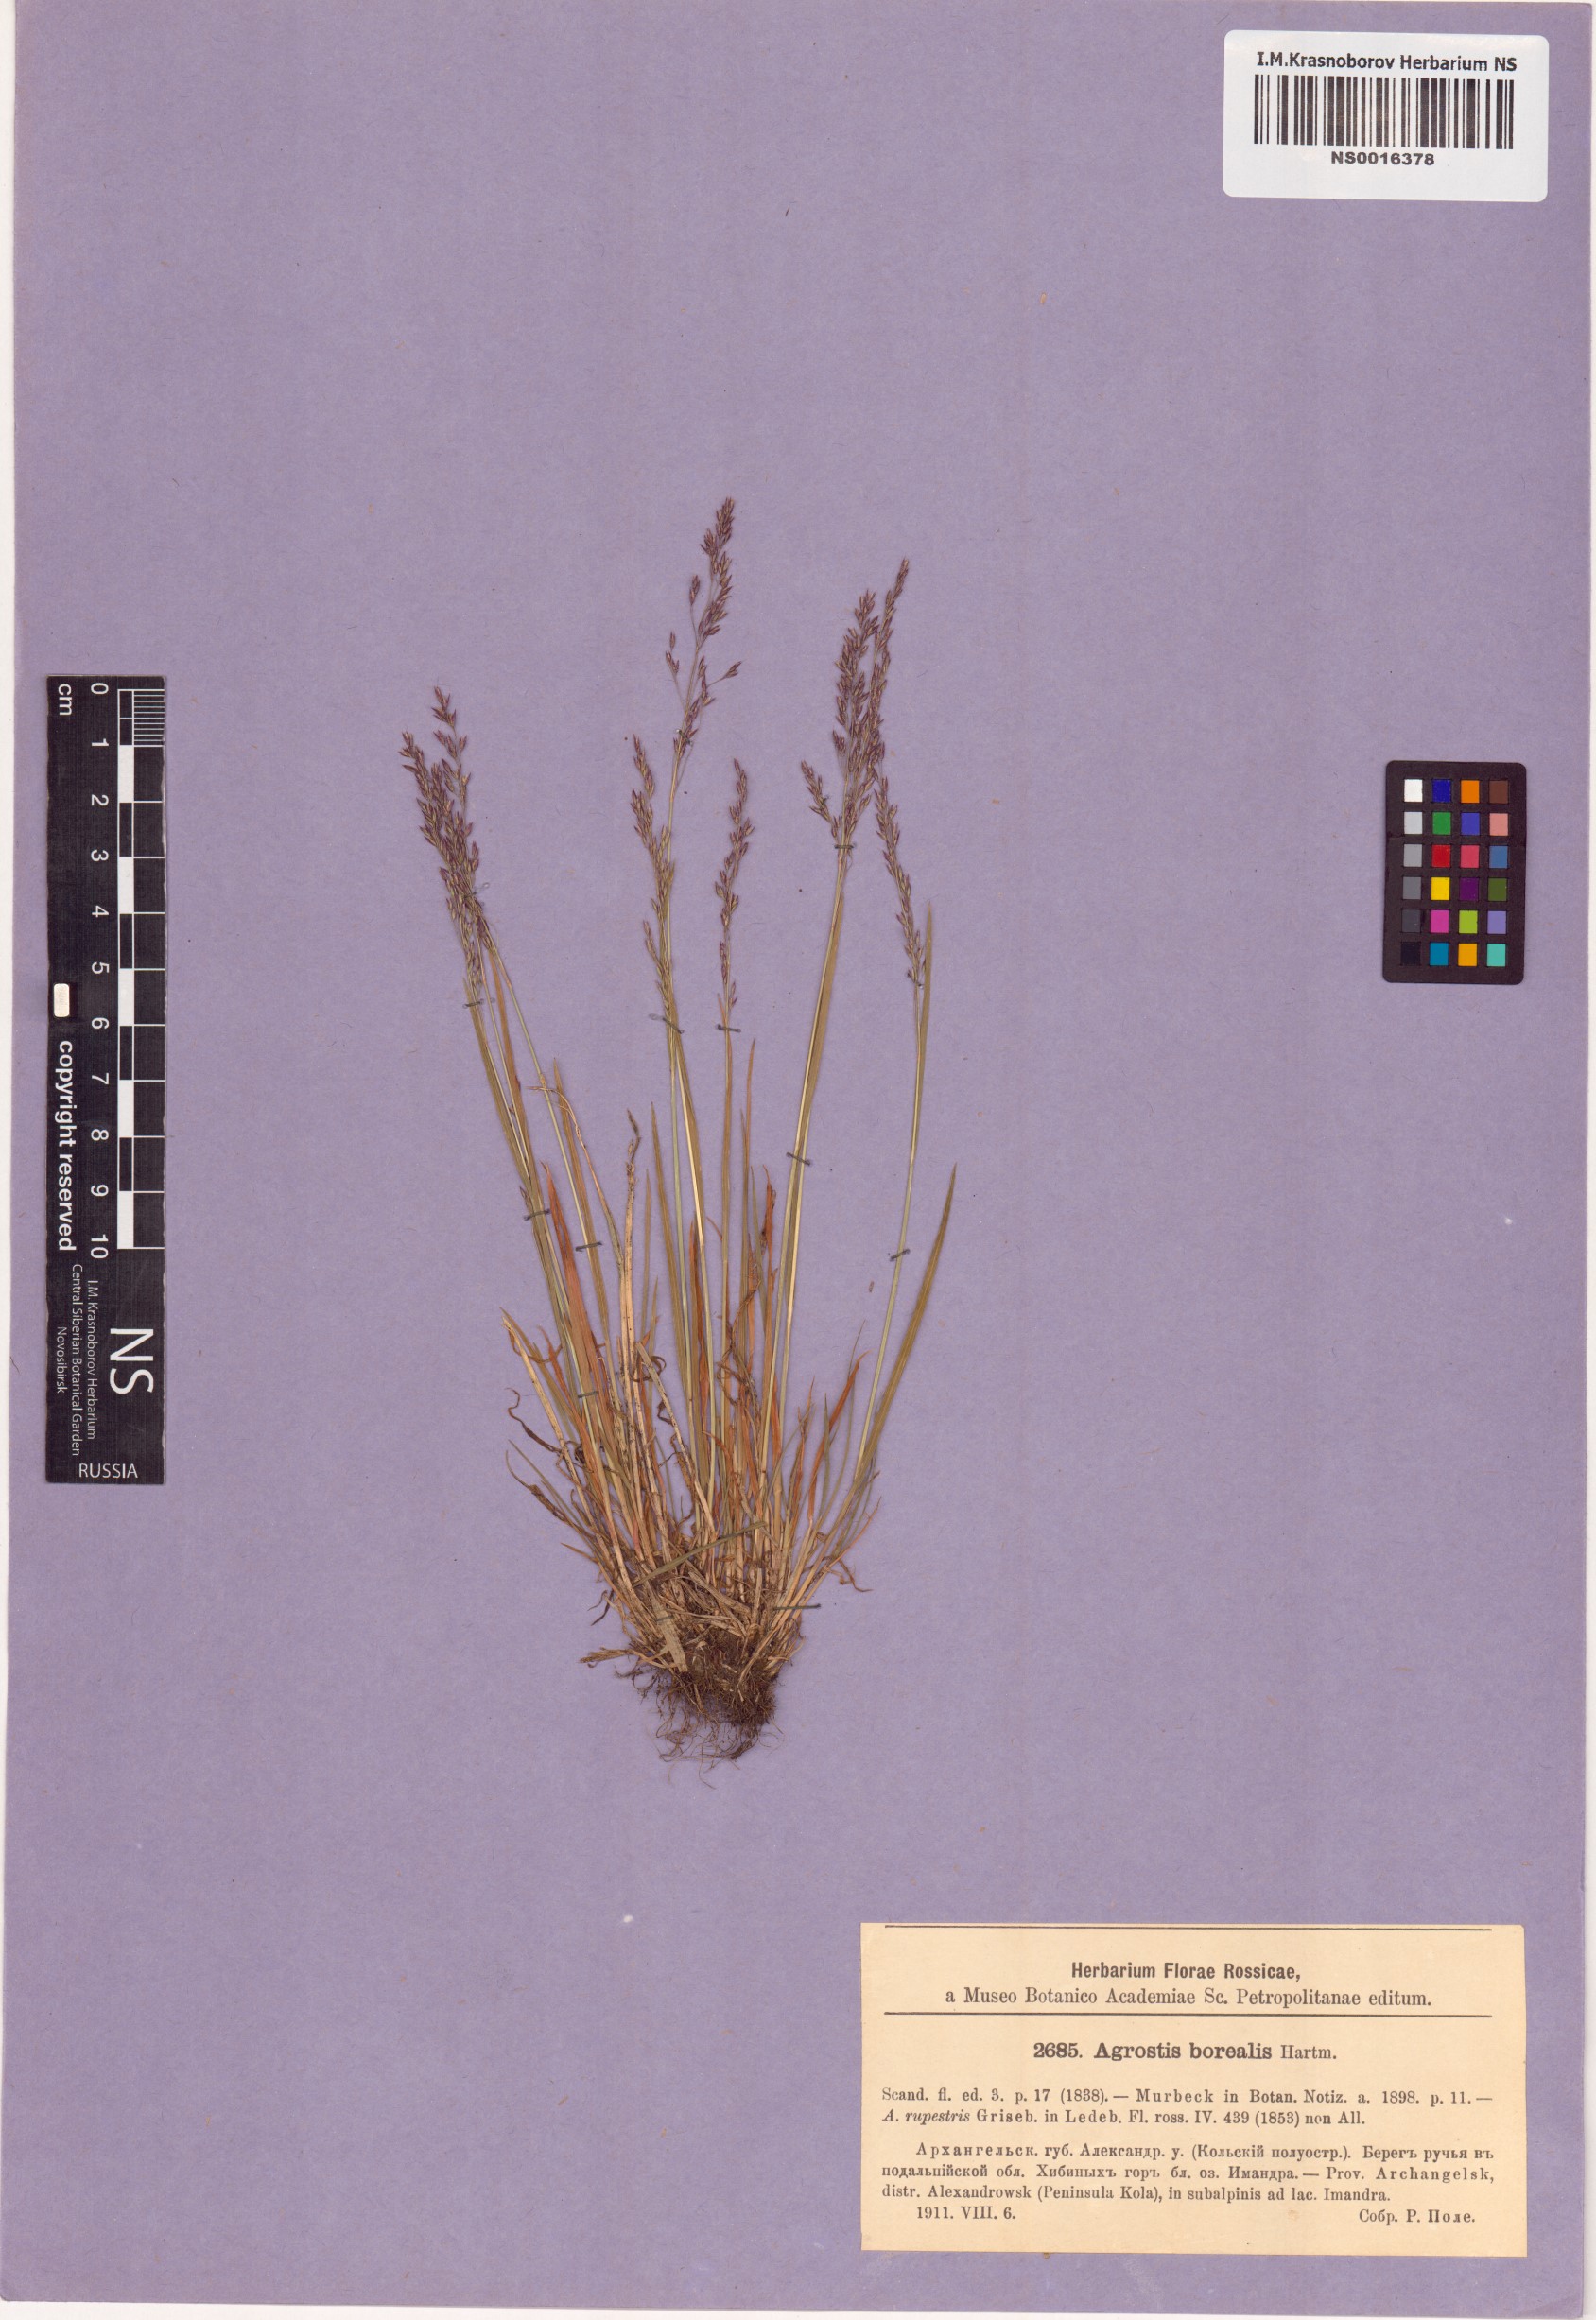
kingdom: Plantae
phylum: Tracheophyta
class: Liliopsida
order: Poales
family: Poaceae
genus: Agrostis
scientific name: Agrostis mertensii
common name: Northern bent
